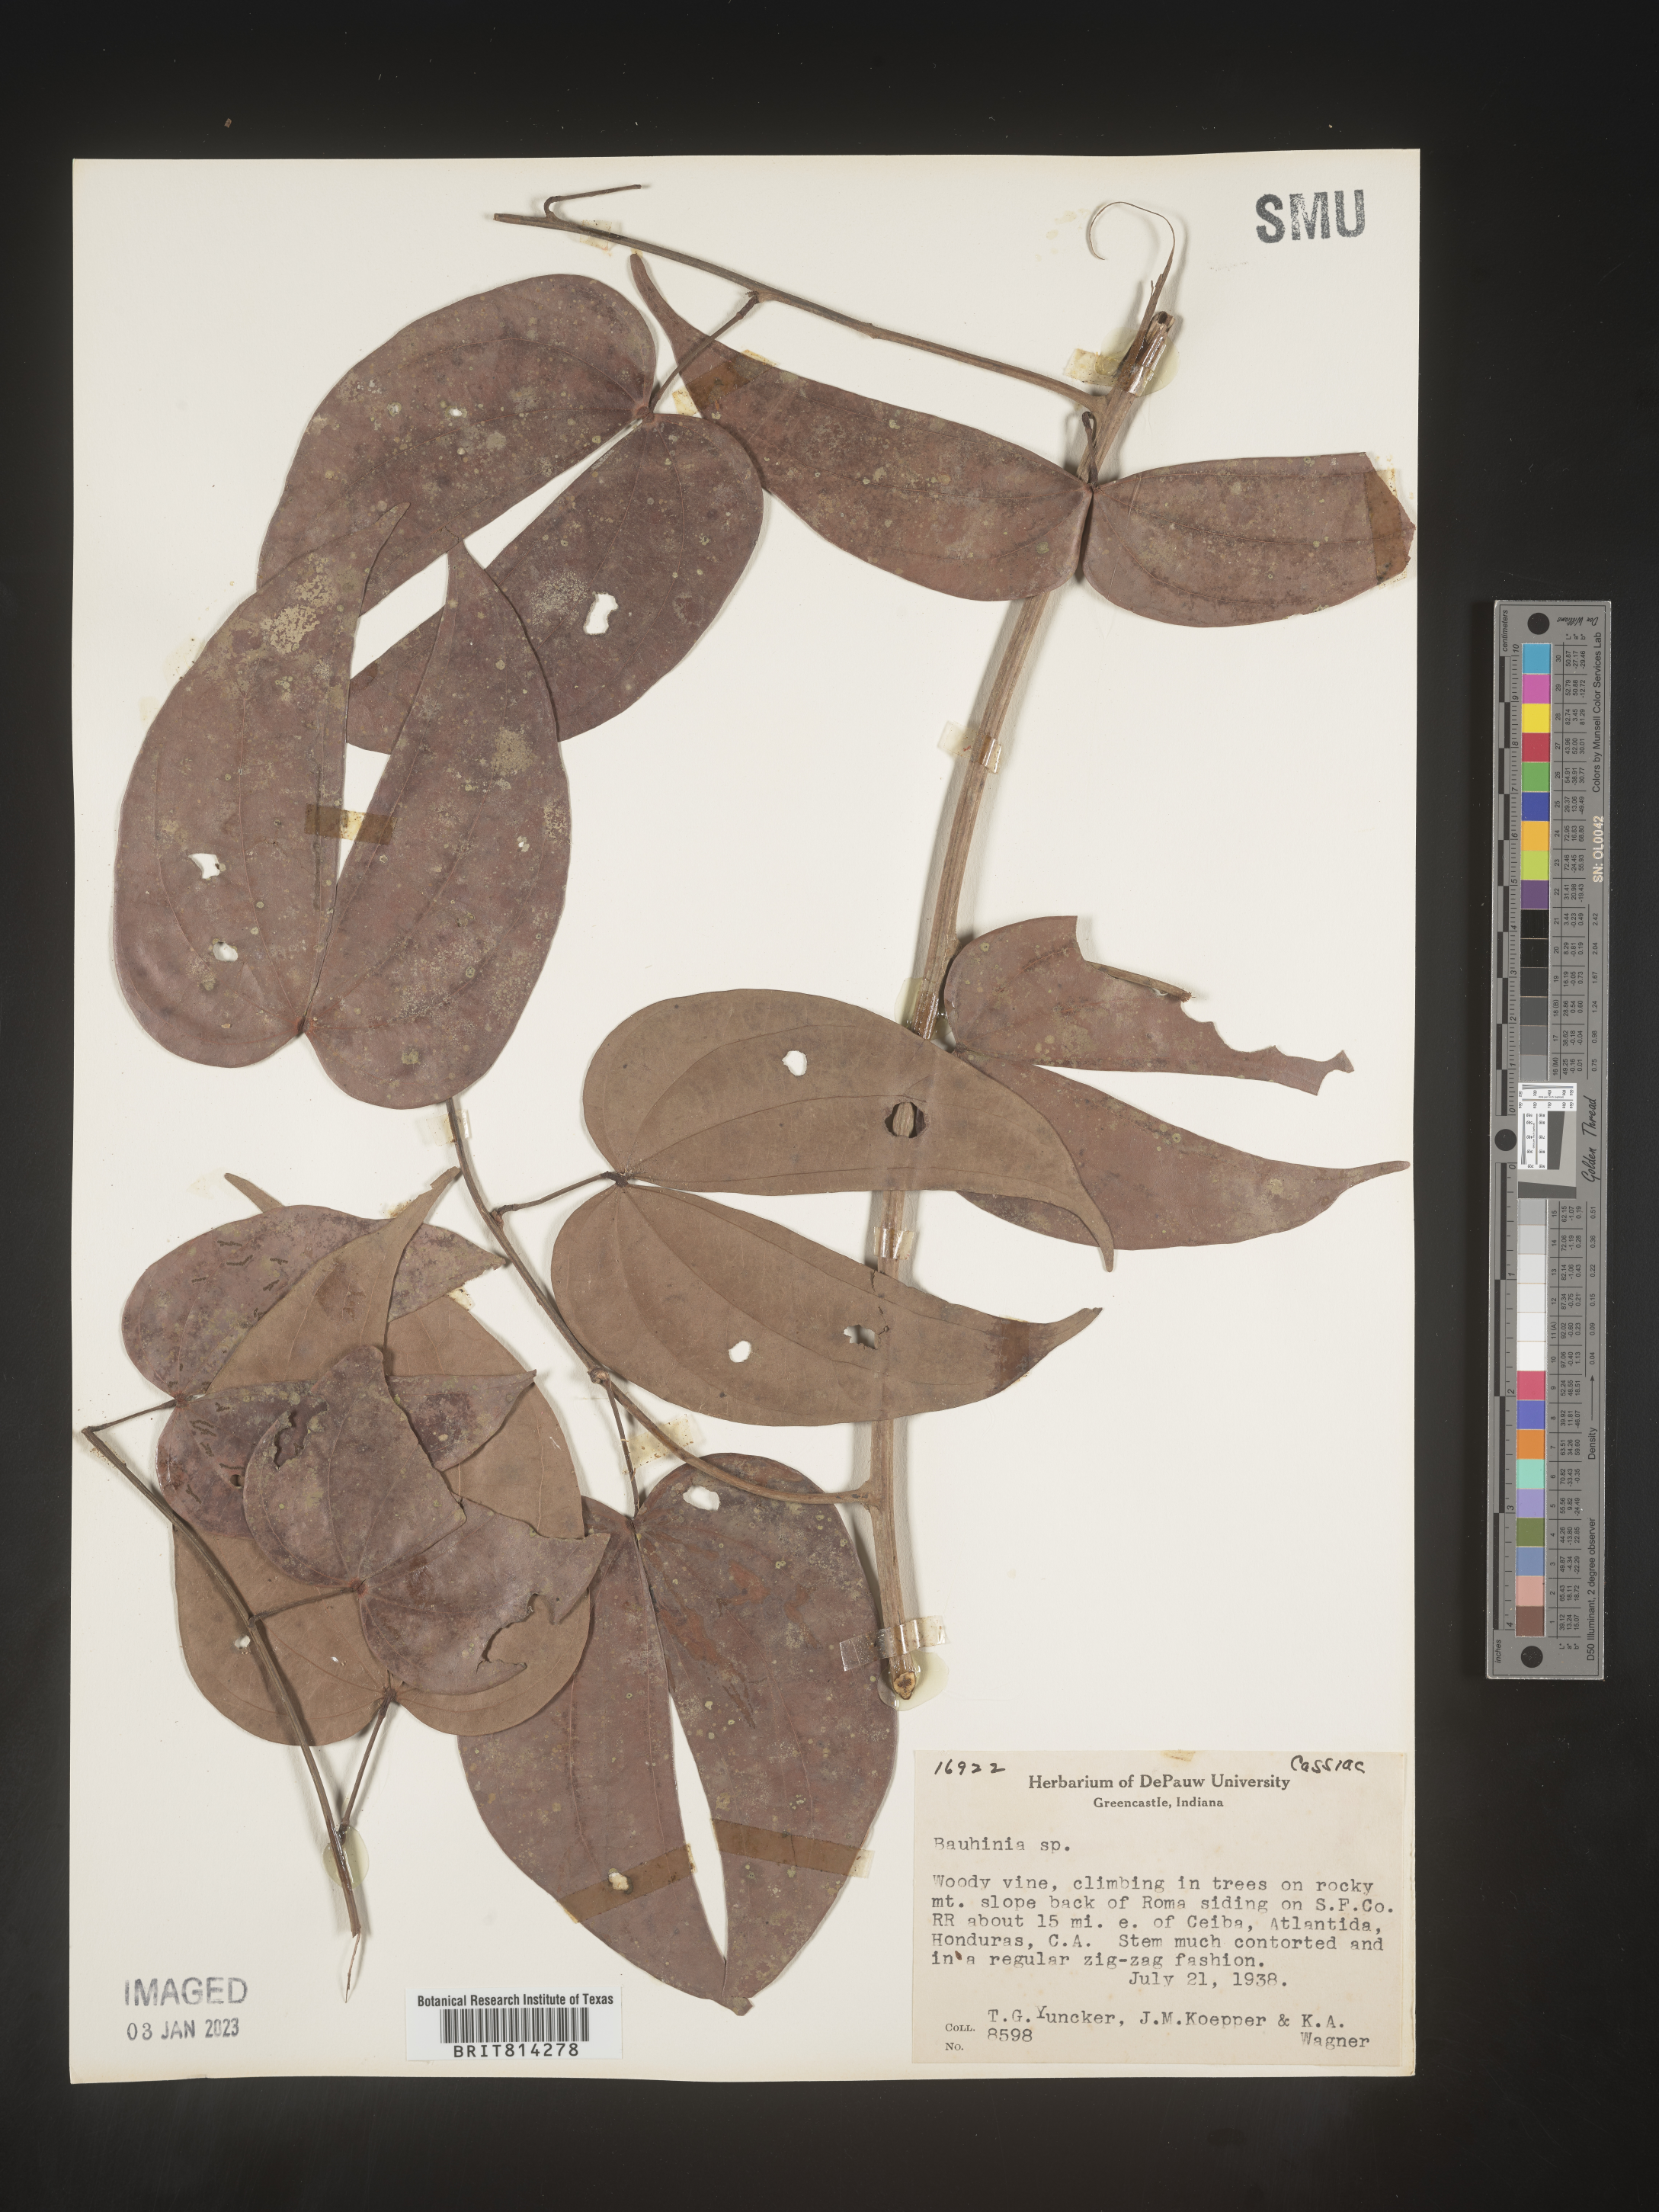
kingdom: Plantae
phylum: Tracheophyta
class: Magnoliopsida
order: Fabales
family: Fabaceae
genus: Bauhinia
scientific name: Bauhinia
